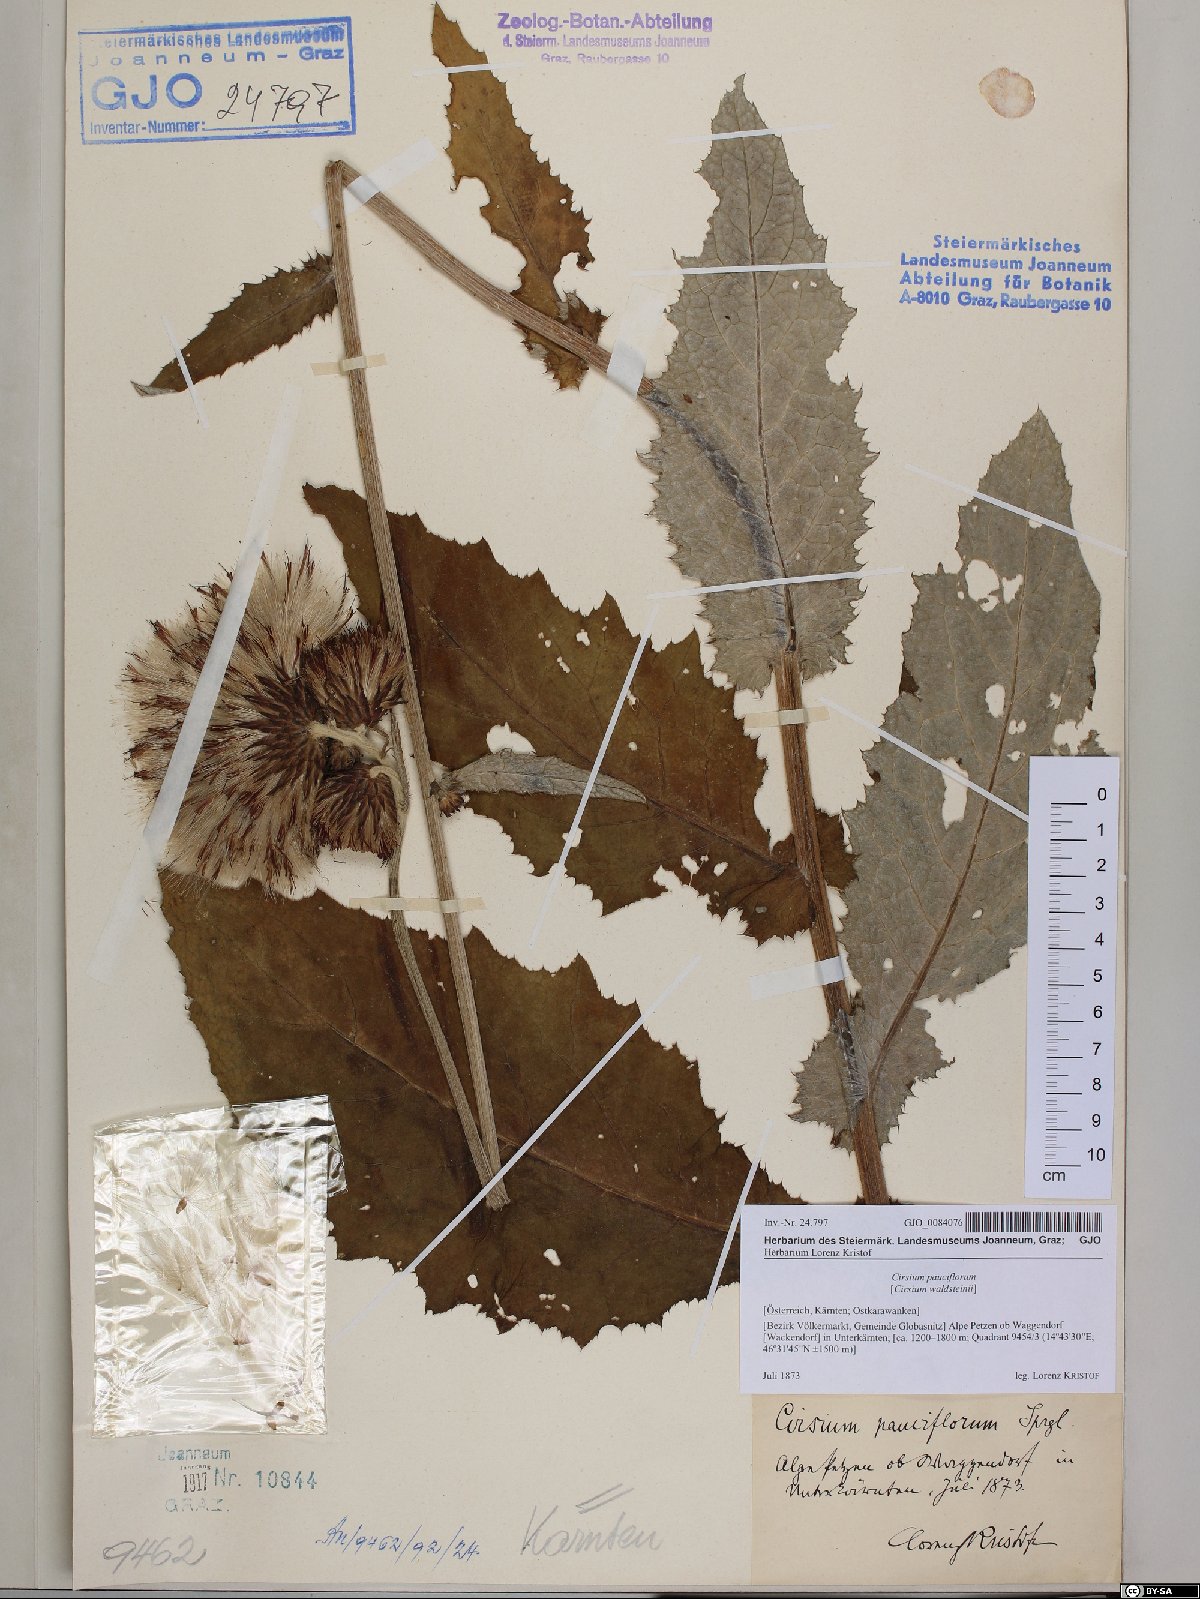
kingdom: Plantae
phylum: Tracheophyta
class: Magnoliopsida
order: Asterales
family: Asteraceae
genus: Cirsium
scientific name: Cirsium greimleri
